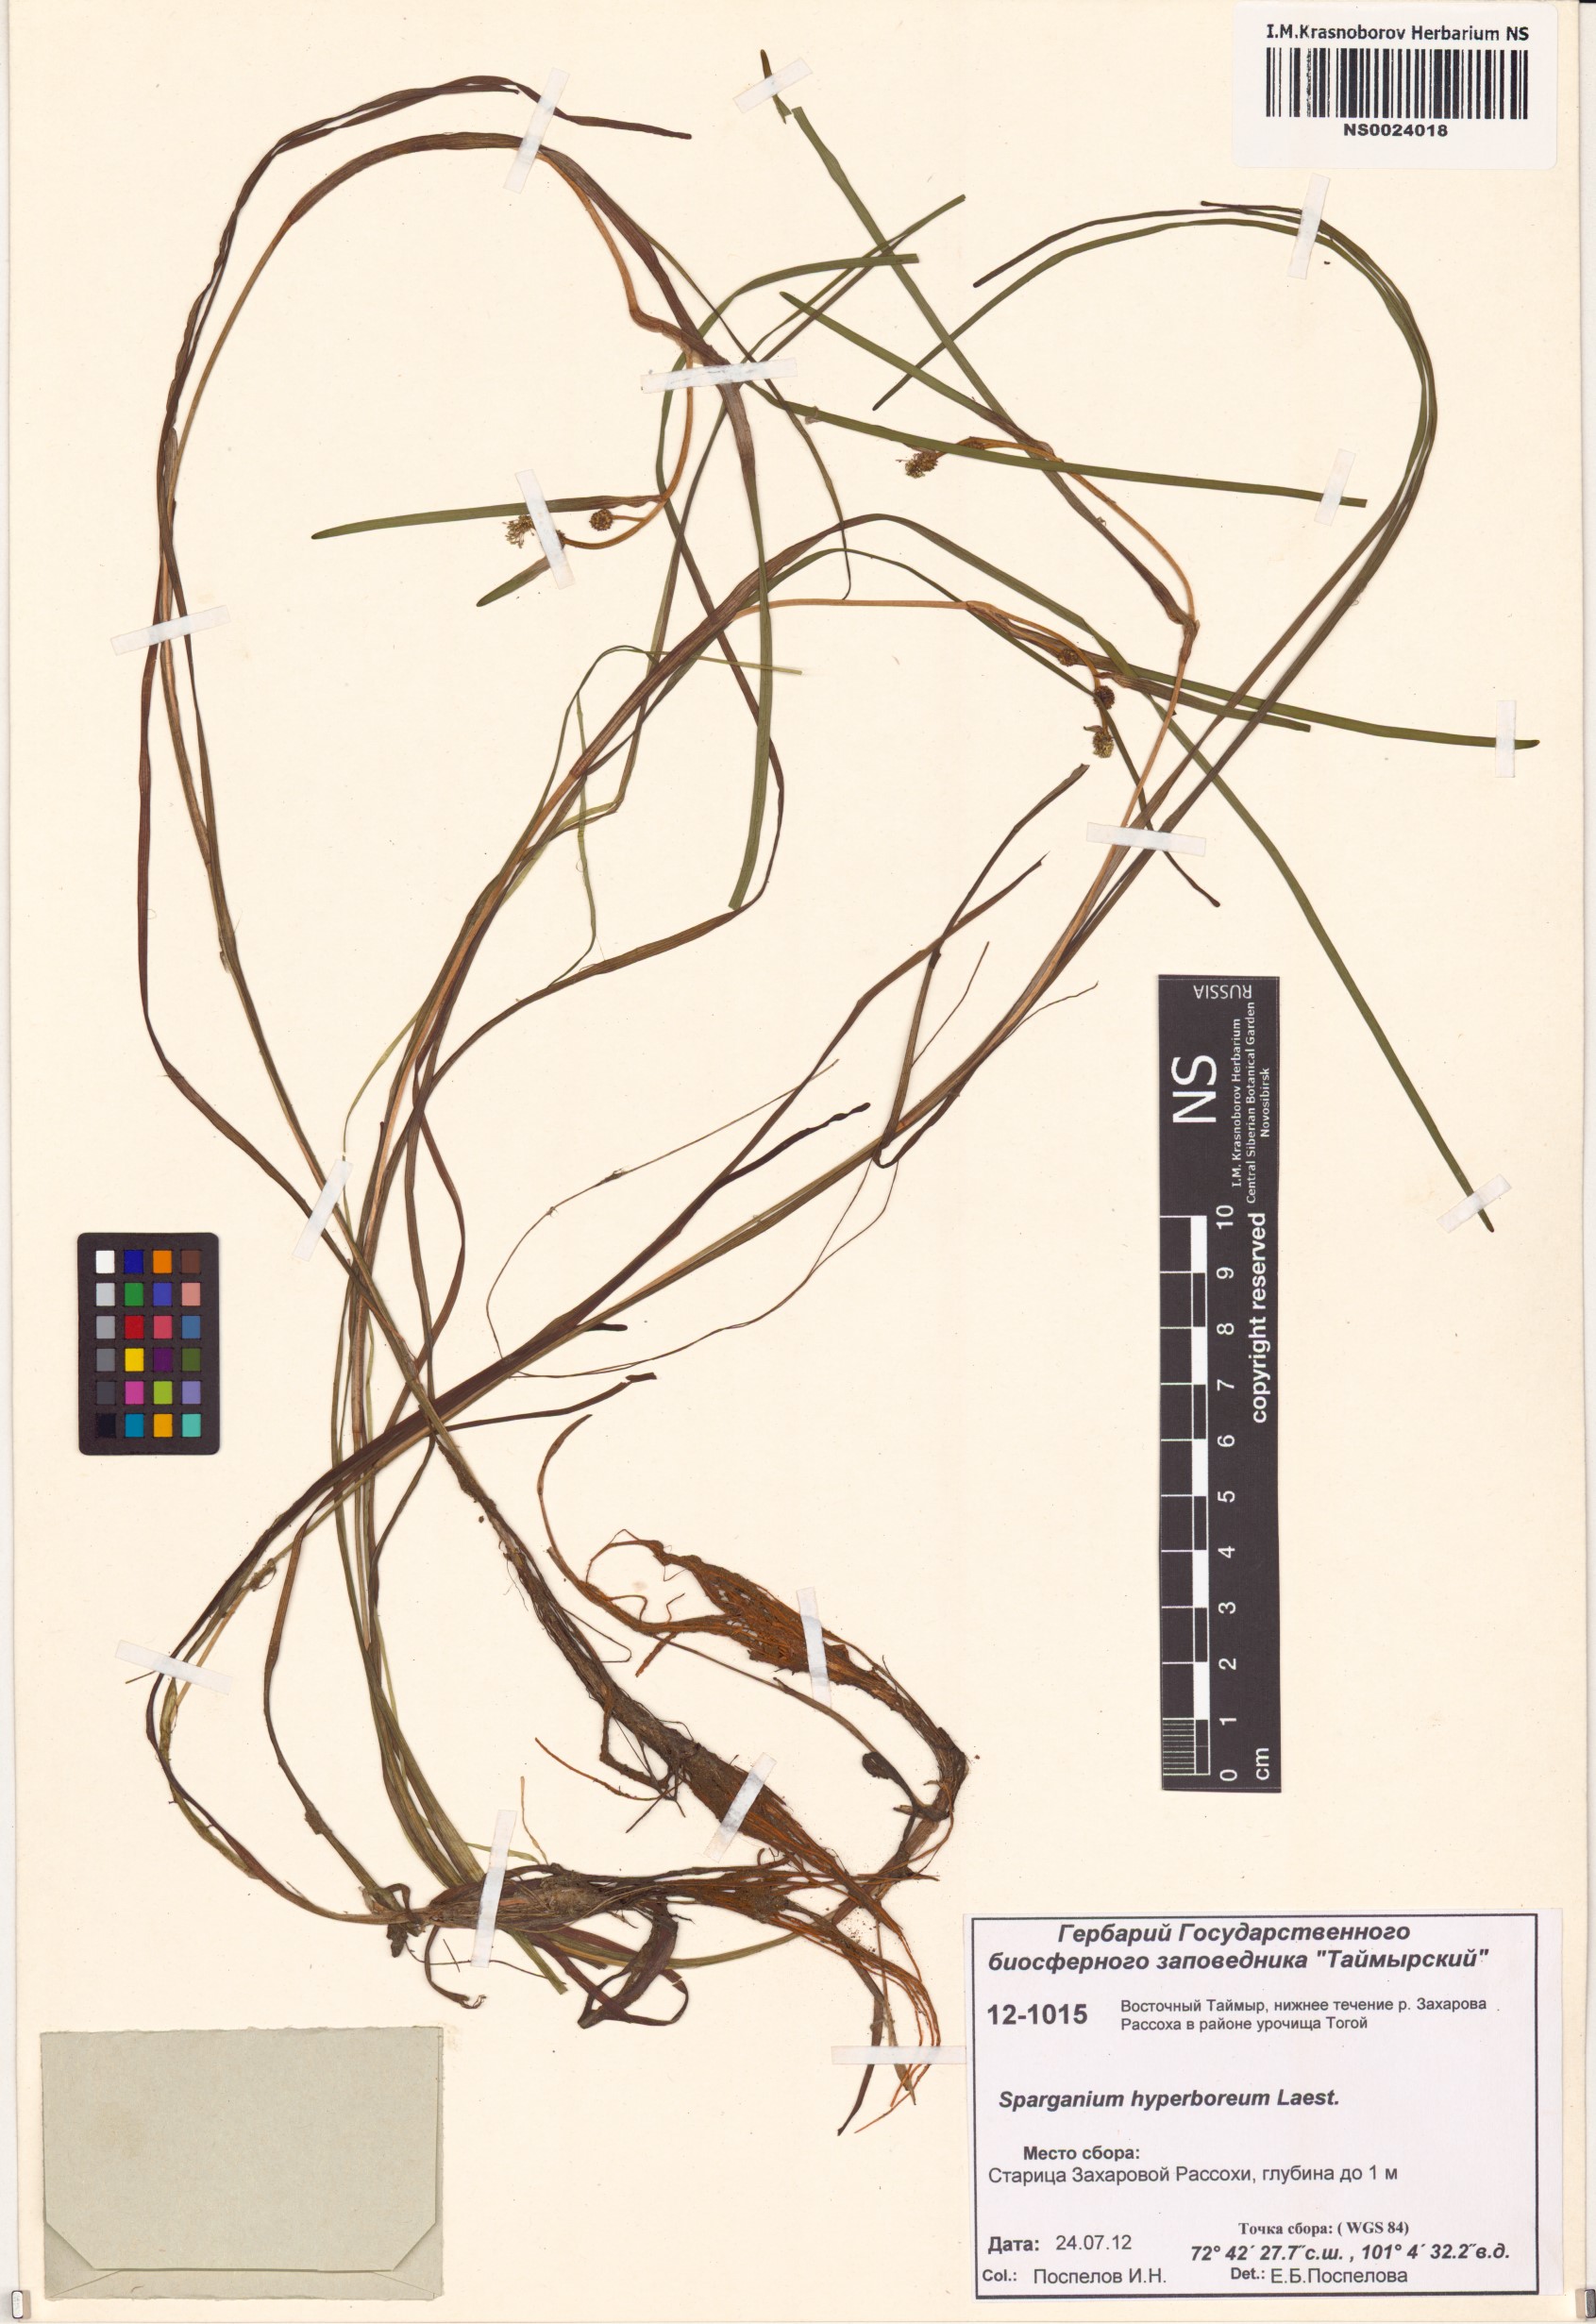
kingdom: Plantae
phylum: Tracheophyta
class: Liliopsida
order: Poales
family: Typhaceae
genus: Sparganium
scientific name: Sparganium hyperboreum
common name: Arctic burreed
